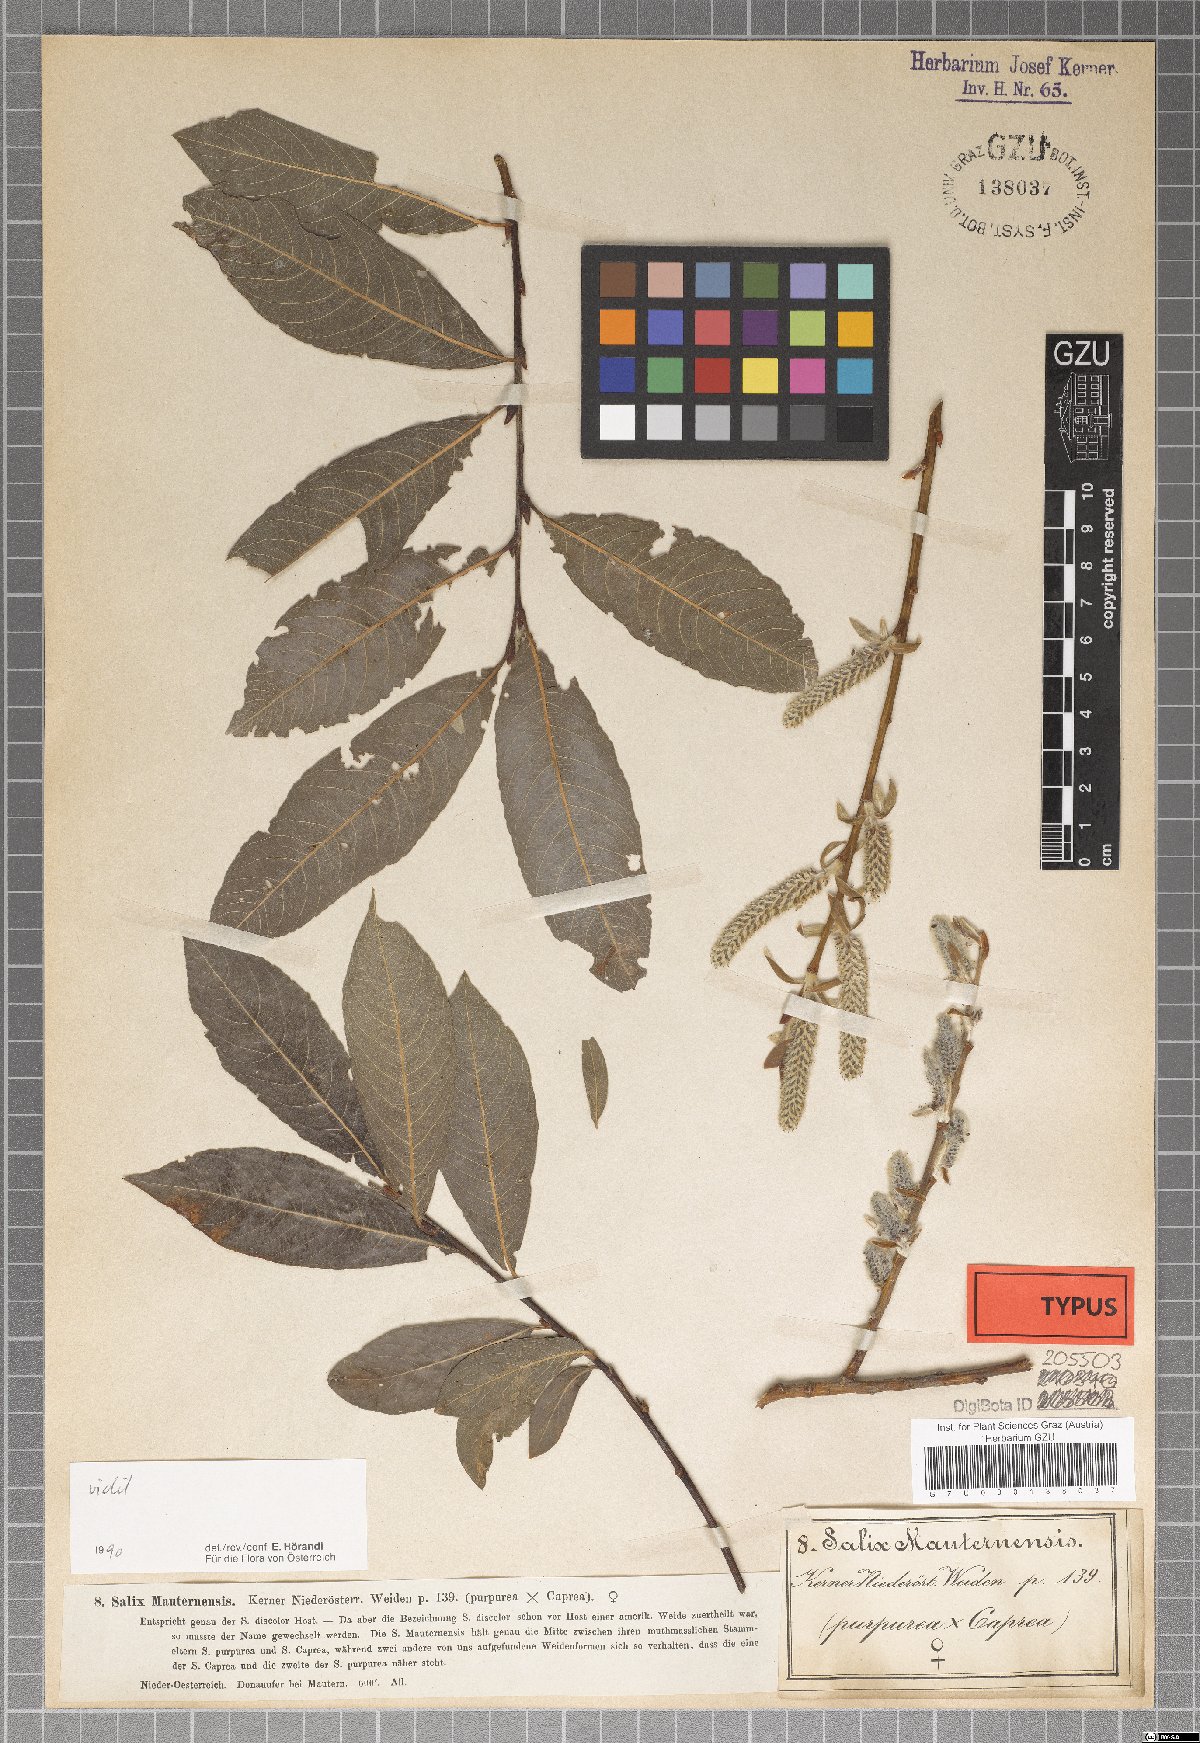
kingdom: Plantae
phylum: Tracheophyta
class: Magnoliopsida
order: Malpighiales
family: Salicaceae
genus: Salix
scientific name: Salix wimmeriana
